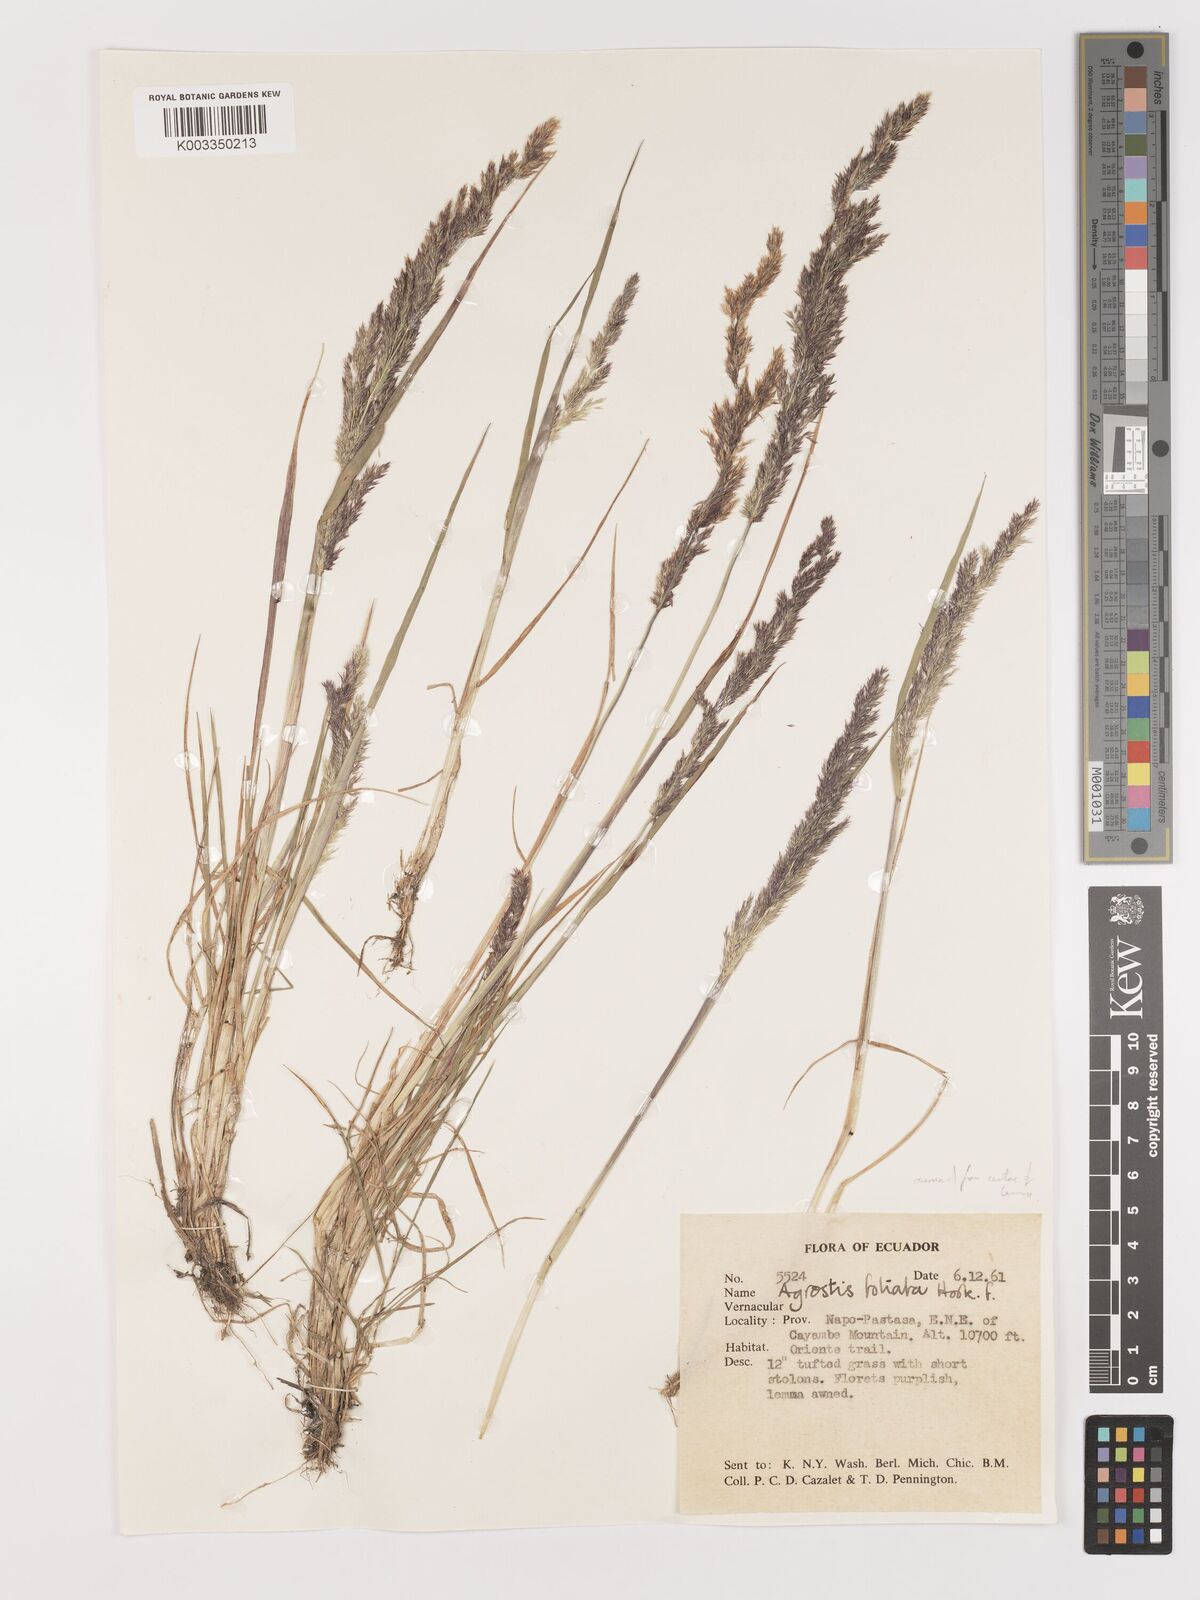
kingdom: Plantae
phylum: Tracheophyta
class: Liliopsida
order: Poales
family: Poaceae
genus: Agrostis
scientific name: Agrostis
